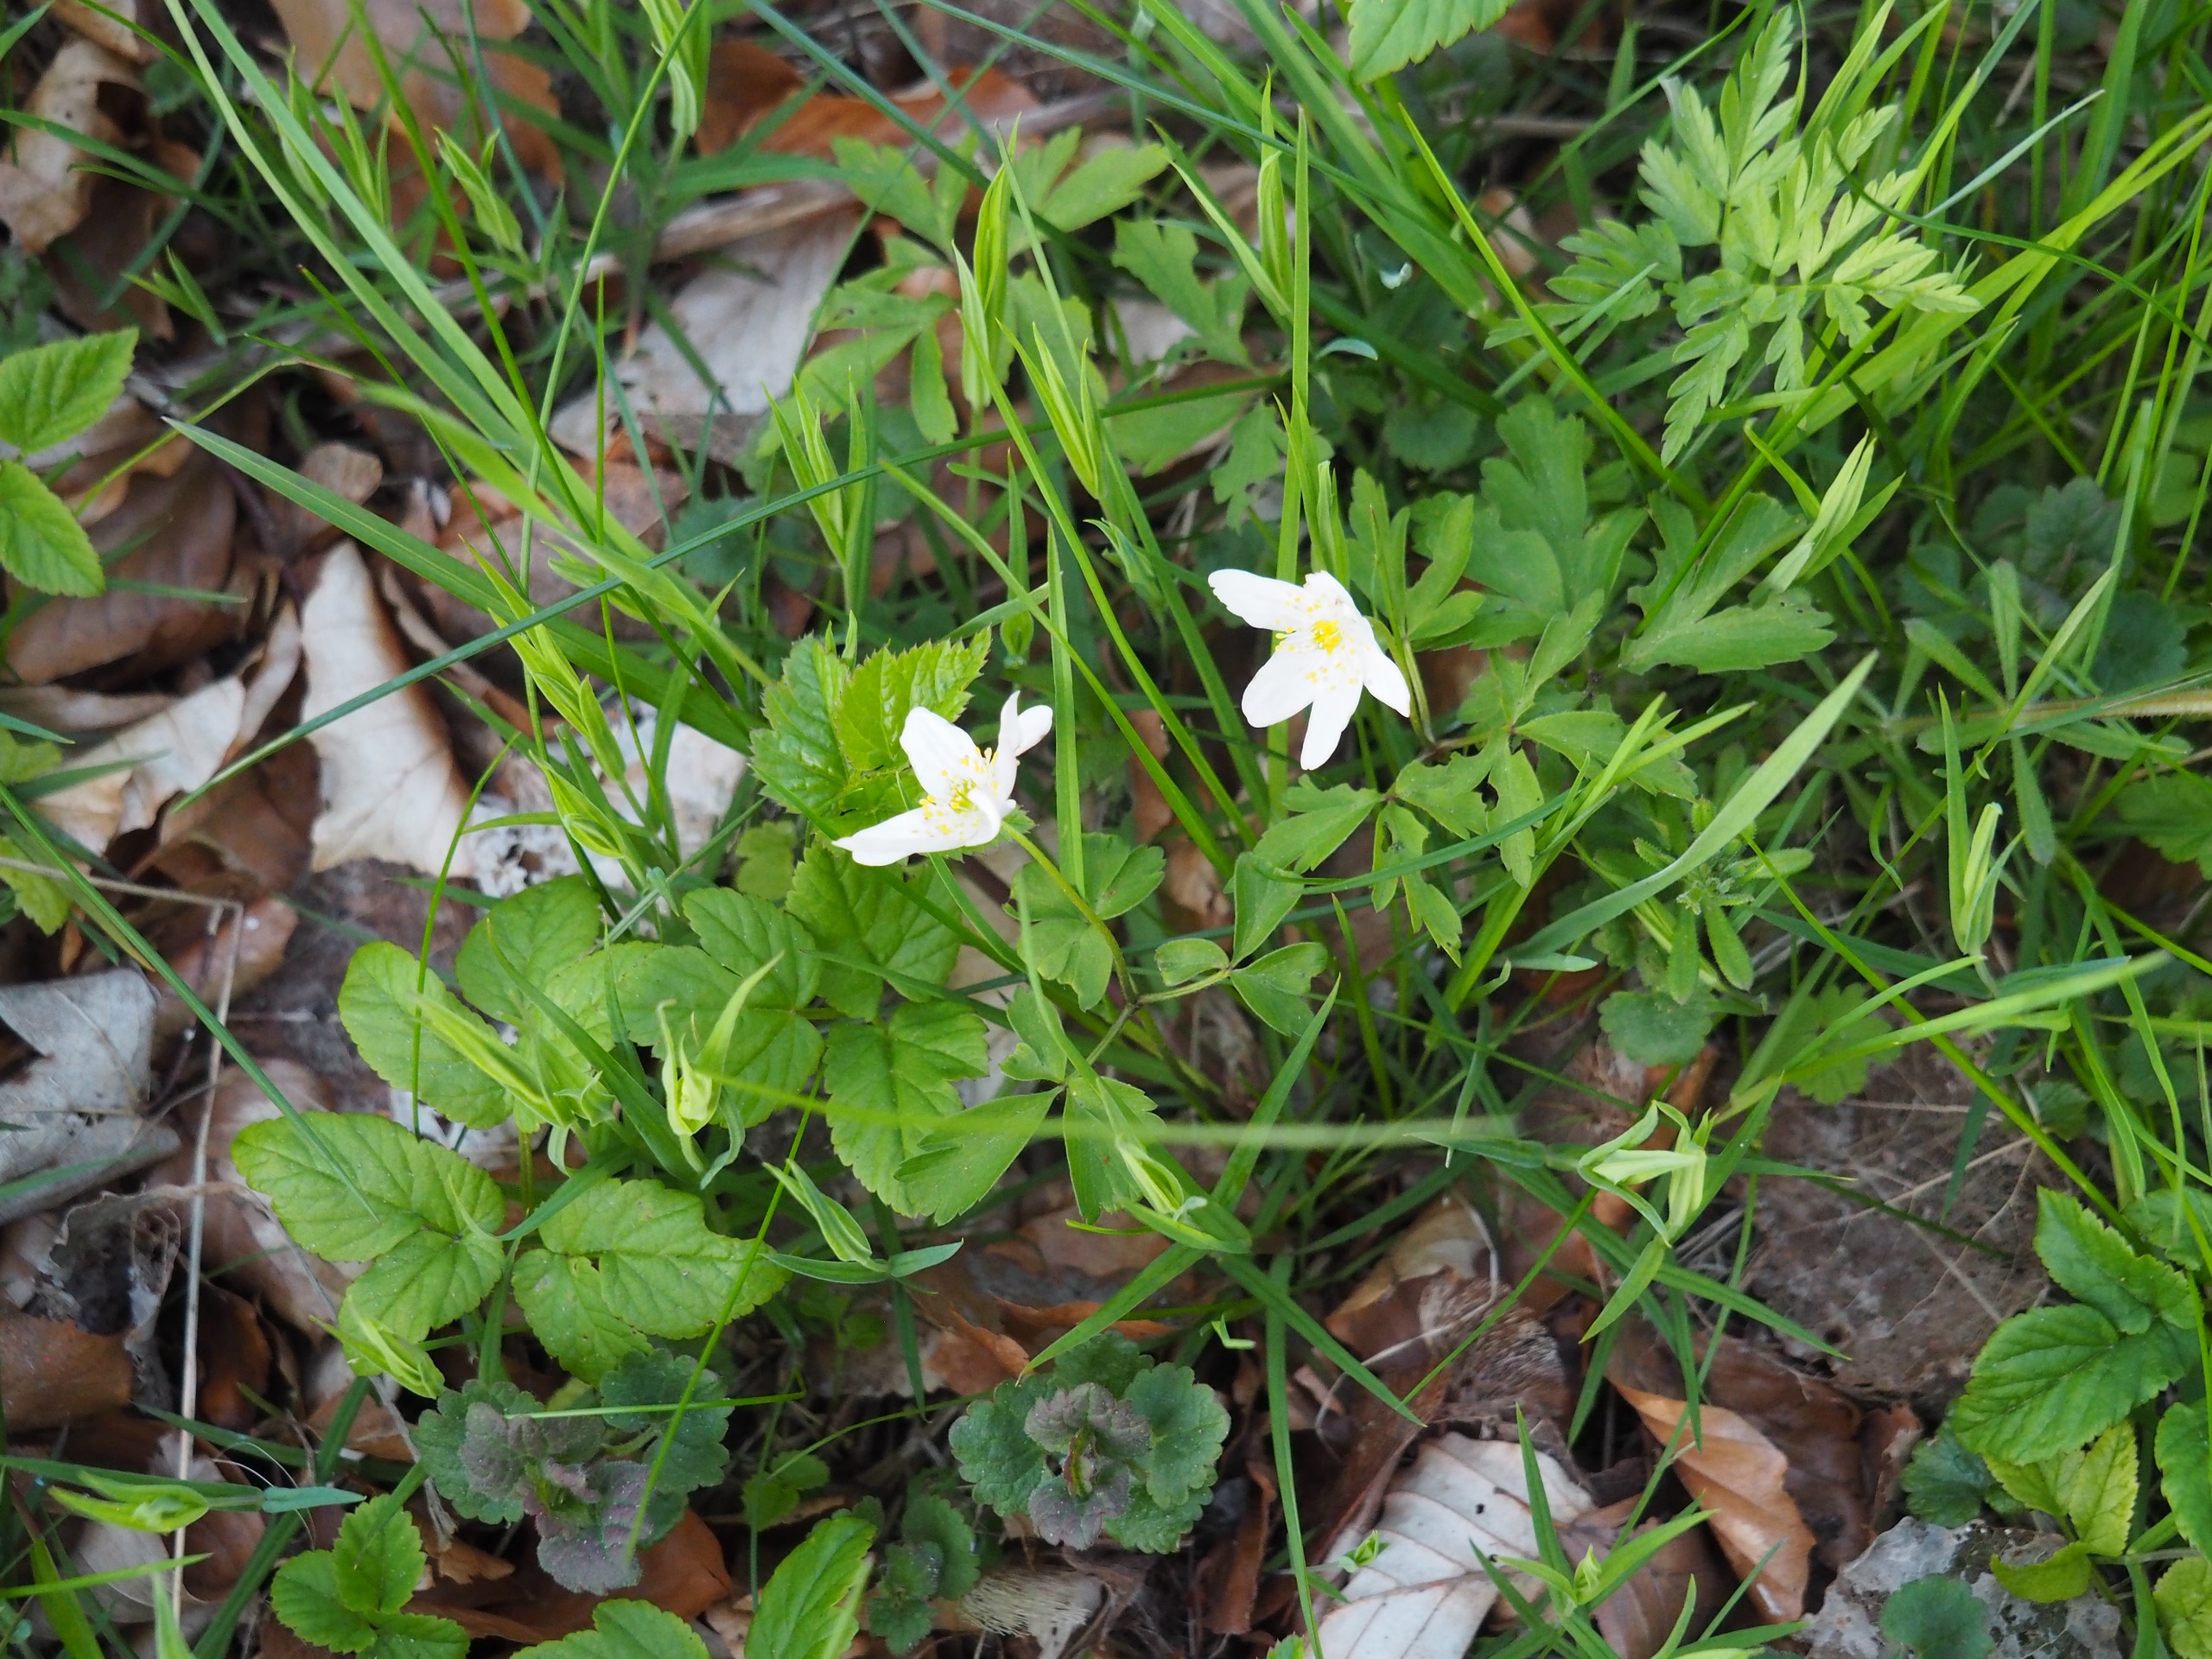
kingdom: Plantae
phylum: Tracheophyta
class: Magnoliopsida
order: Ranunculales
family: Ranunculaceae
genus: Anemone
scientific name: Anemone nemorosa
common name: Hvid anemone
